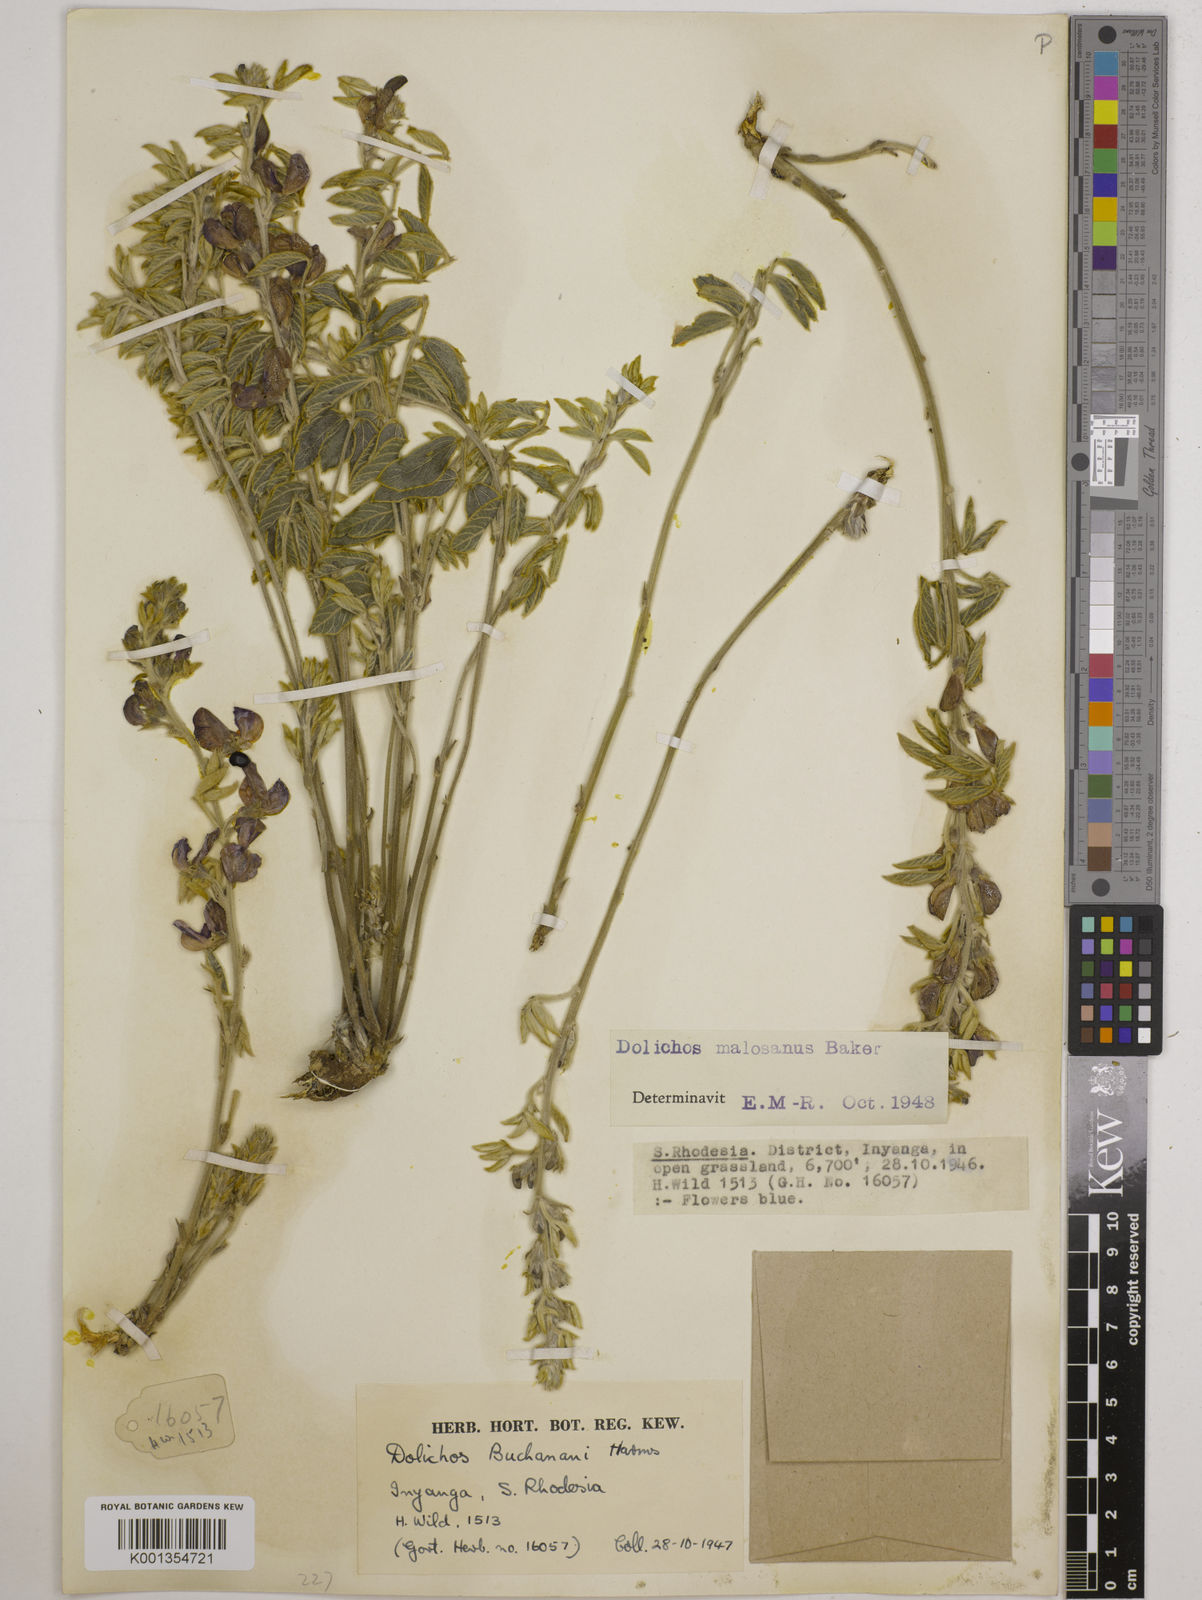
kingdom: Plantae
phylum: Tracheophyta
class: Magnoliopsida
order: Fabales
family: Fabaceae
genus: Dolichos
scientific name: Dolichos kilimandscharicus
